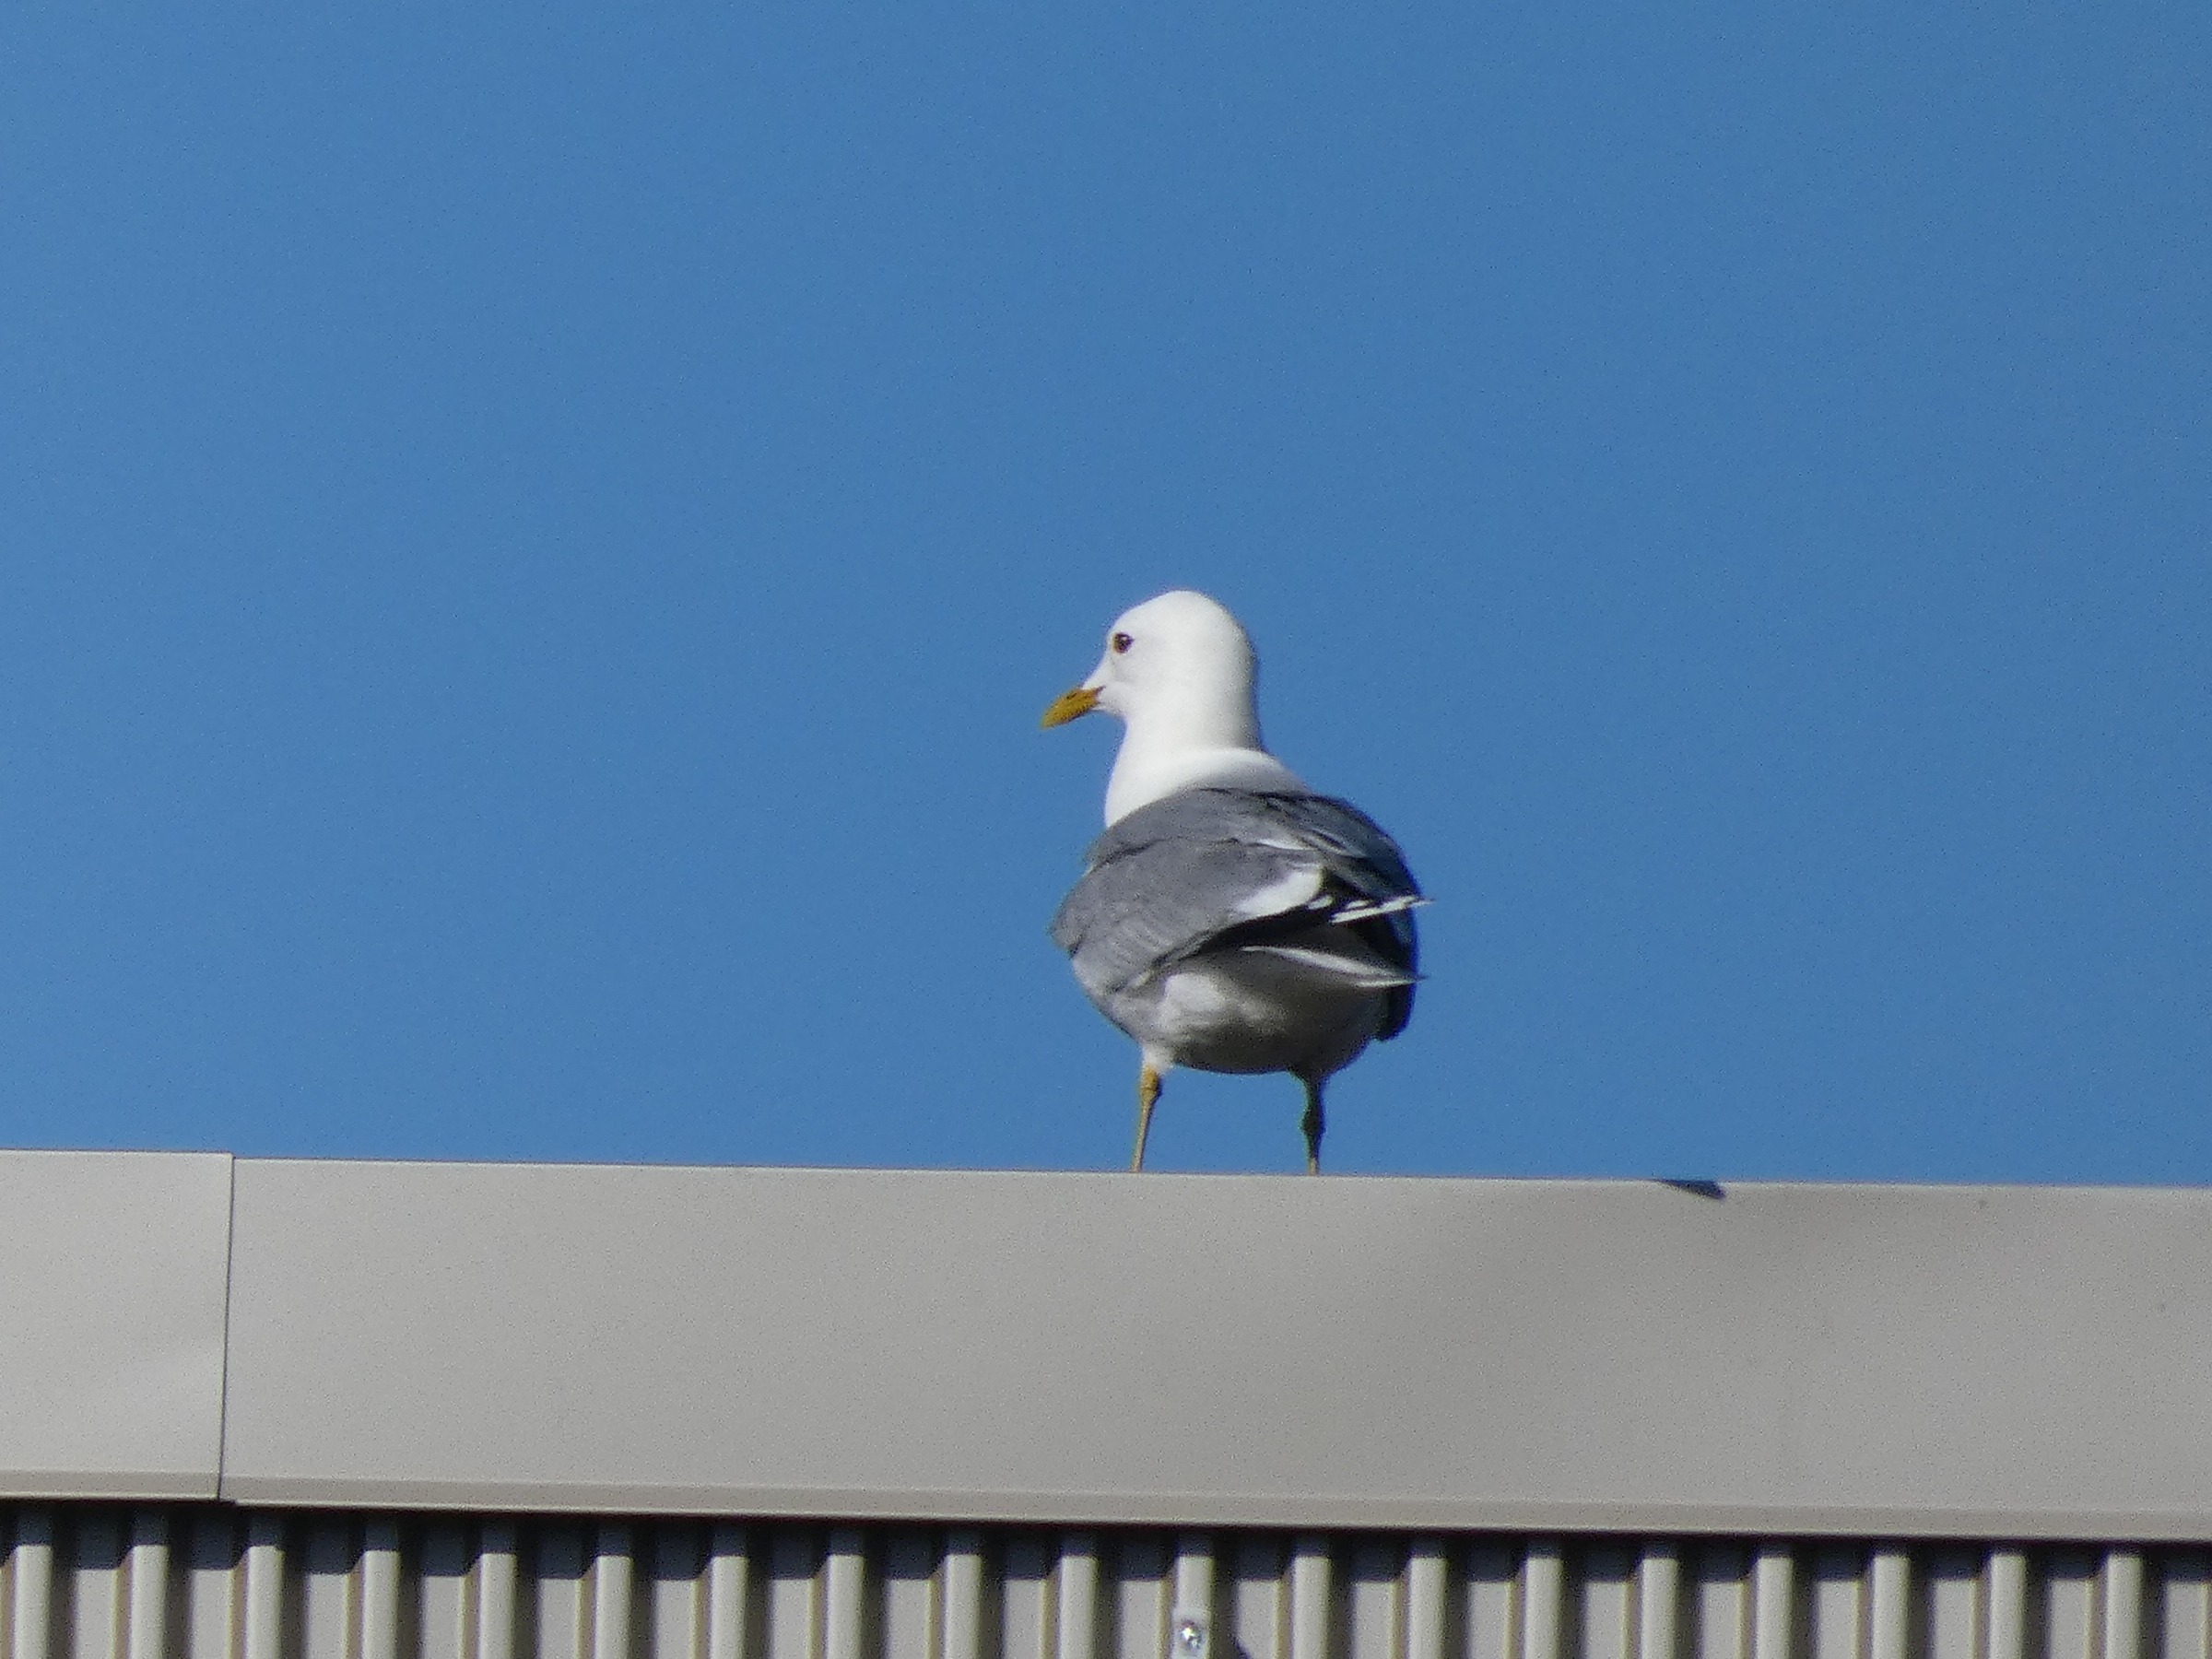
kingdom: Animalia
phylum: Chordata
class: Aves
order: Charadriiformes
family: Laridae
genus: Larus
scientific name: Larus canus
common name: Stormmåge
